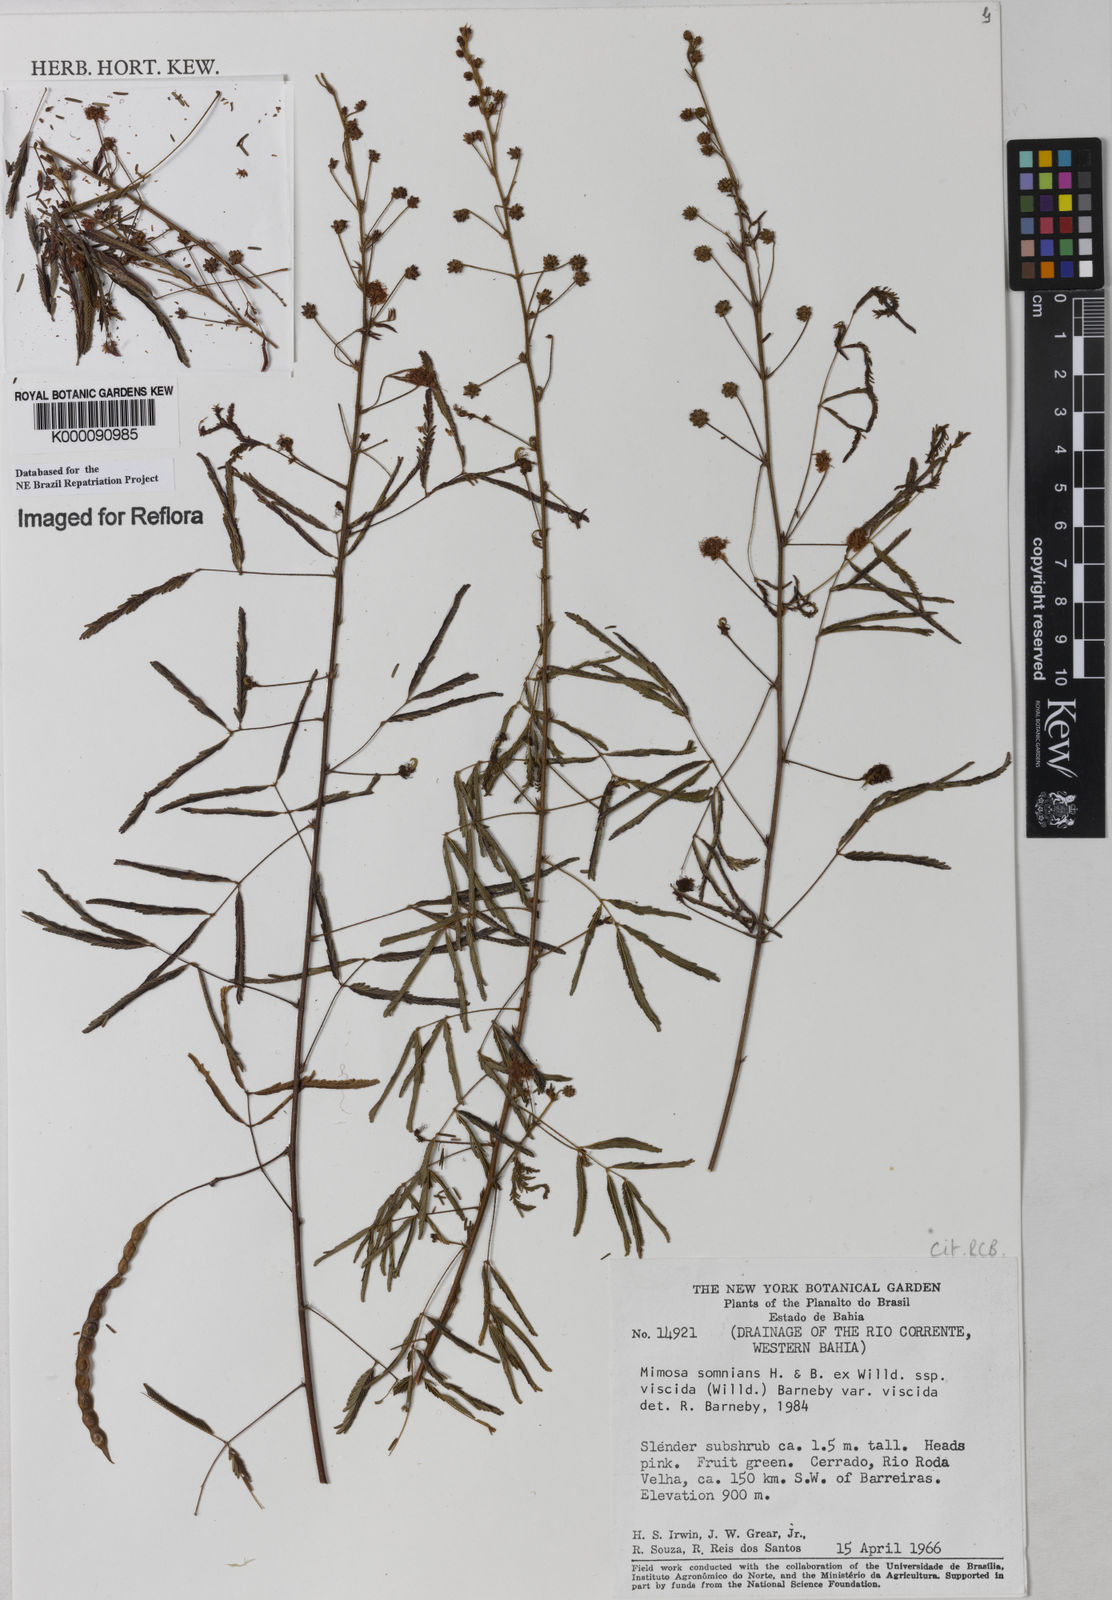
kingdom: Plantae
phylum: Tracheophyta
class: Magnoliopsida
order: Fabales
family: Fabaceae
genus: Mimosa
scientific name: Mimosa somnians
